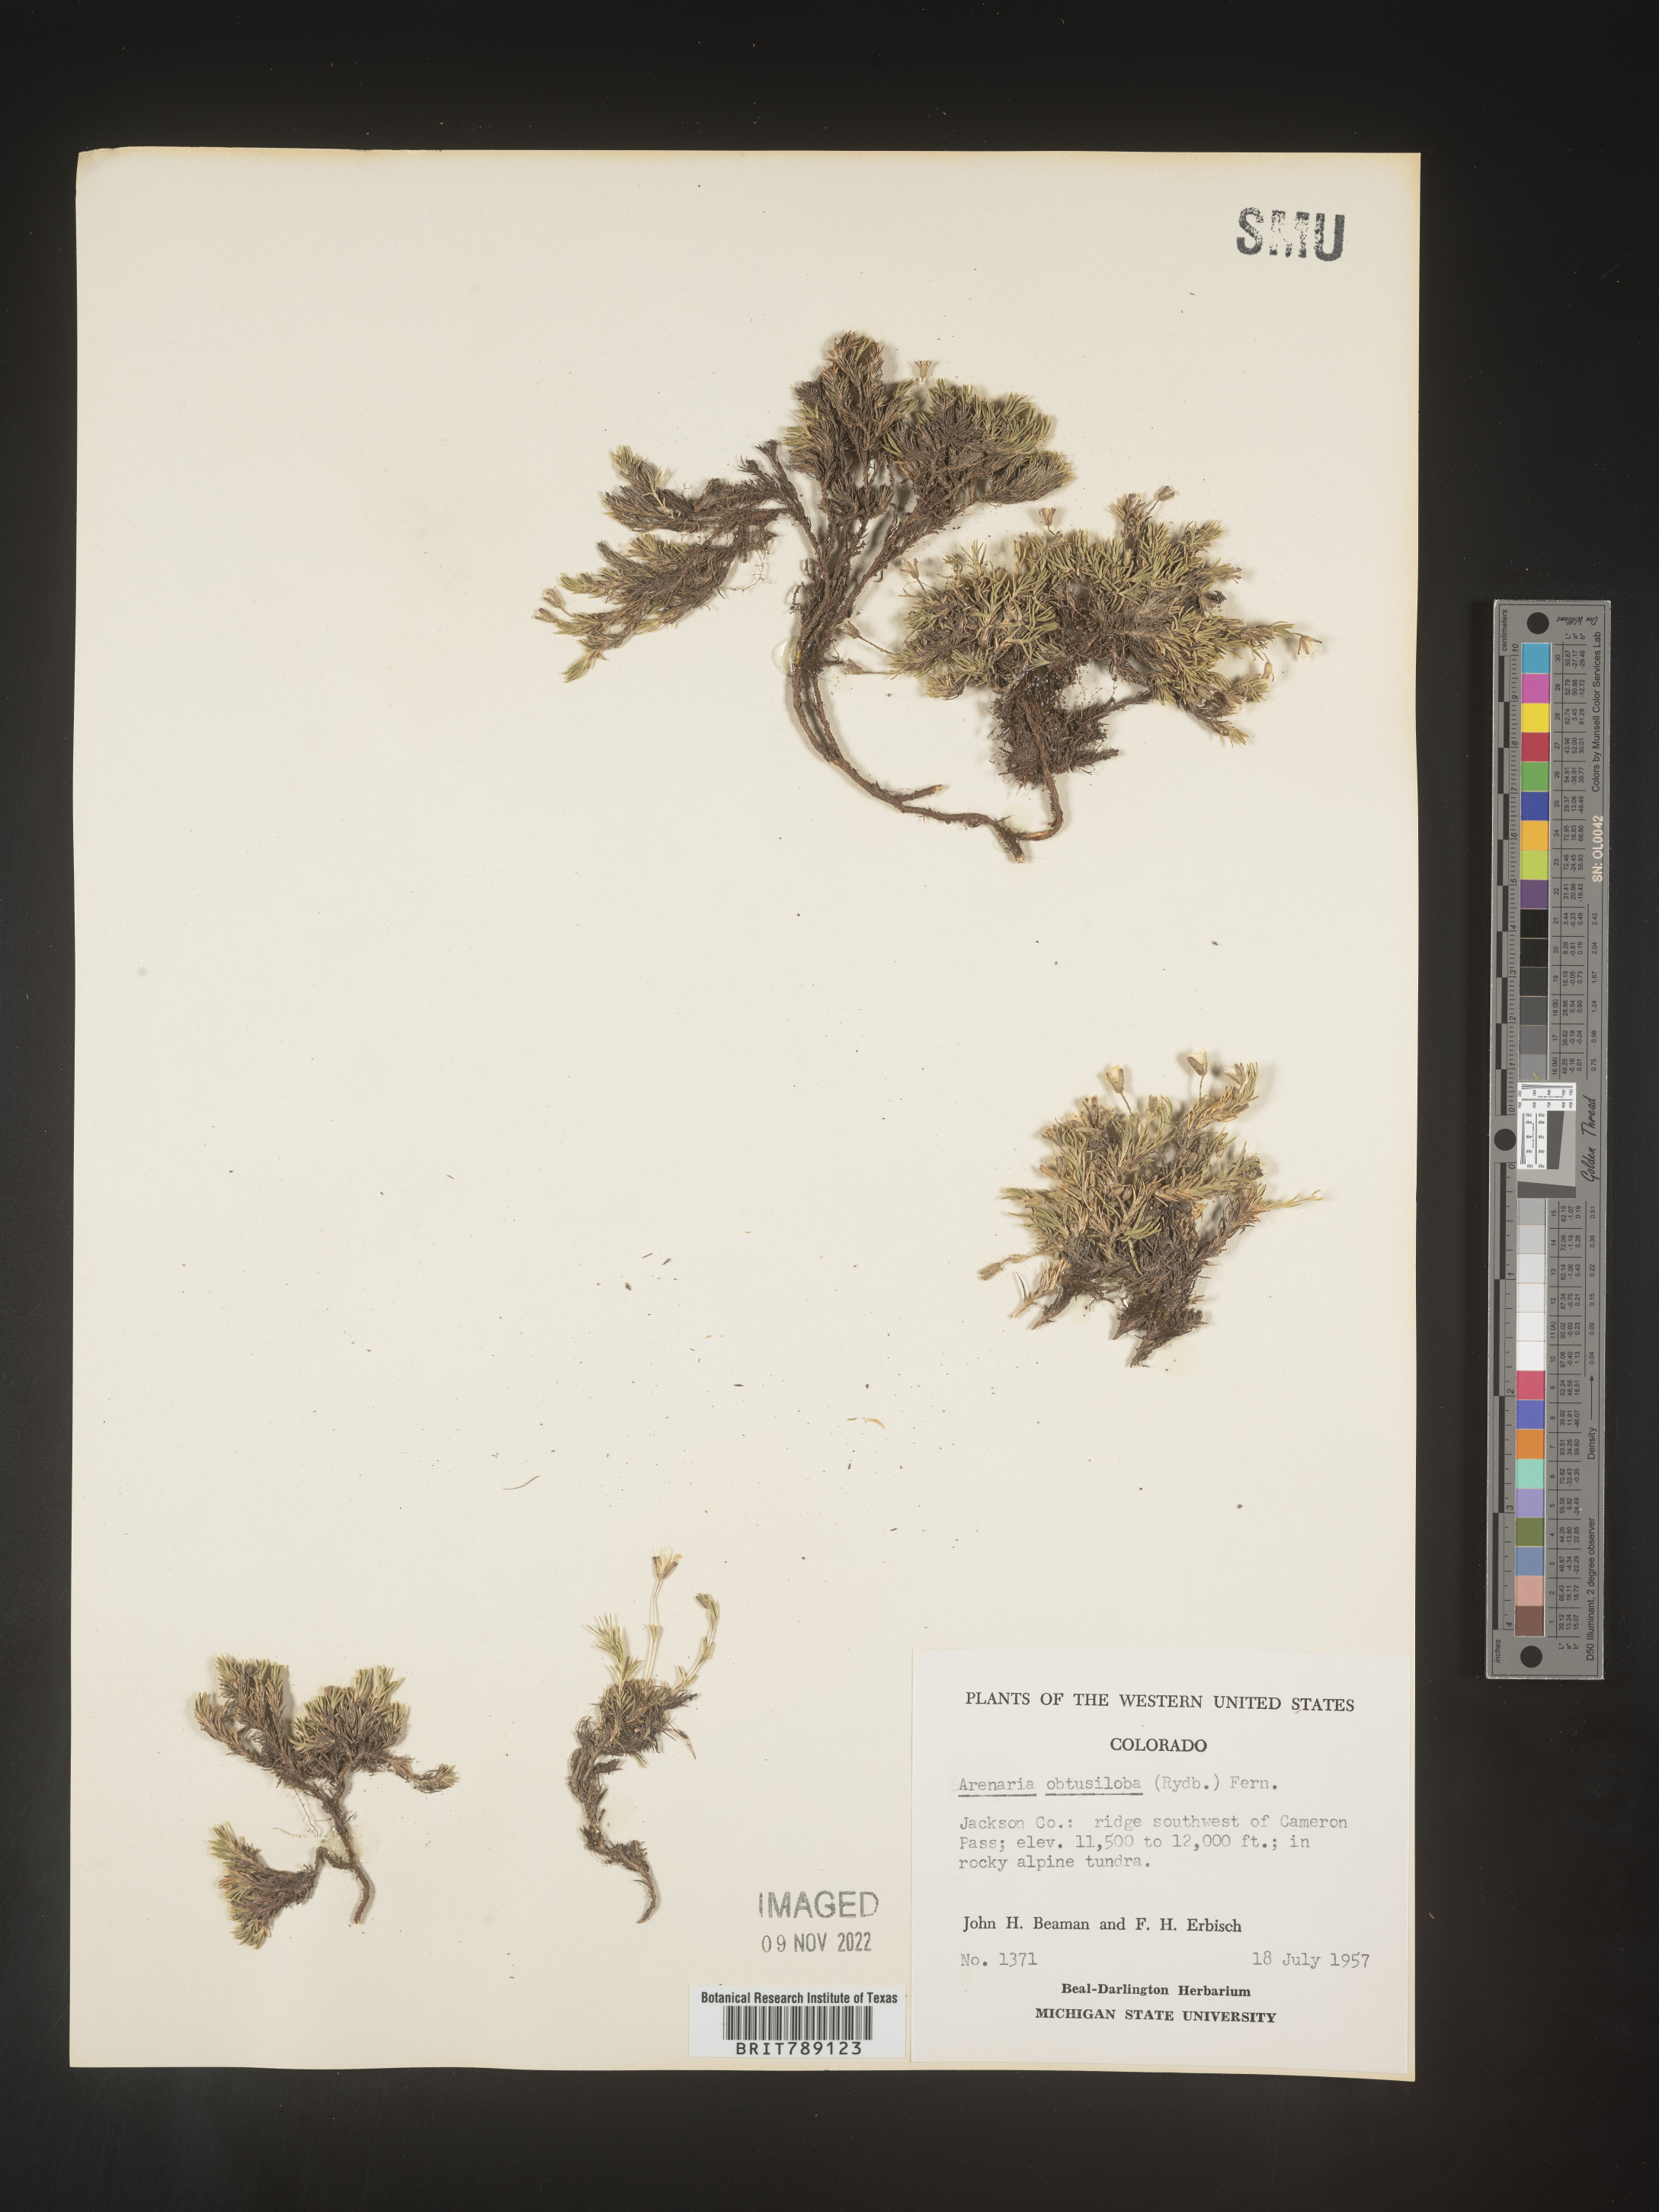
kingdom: Plantae
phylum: Tracheophyta
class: Magnoliopsida
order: Caryophyllales
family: Caryophyllaceae
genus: Arenaria
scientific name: Arenaria
